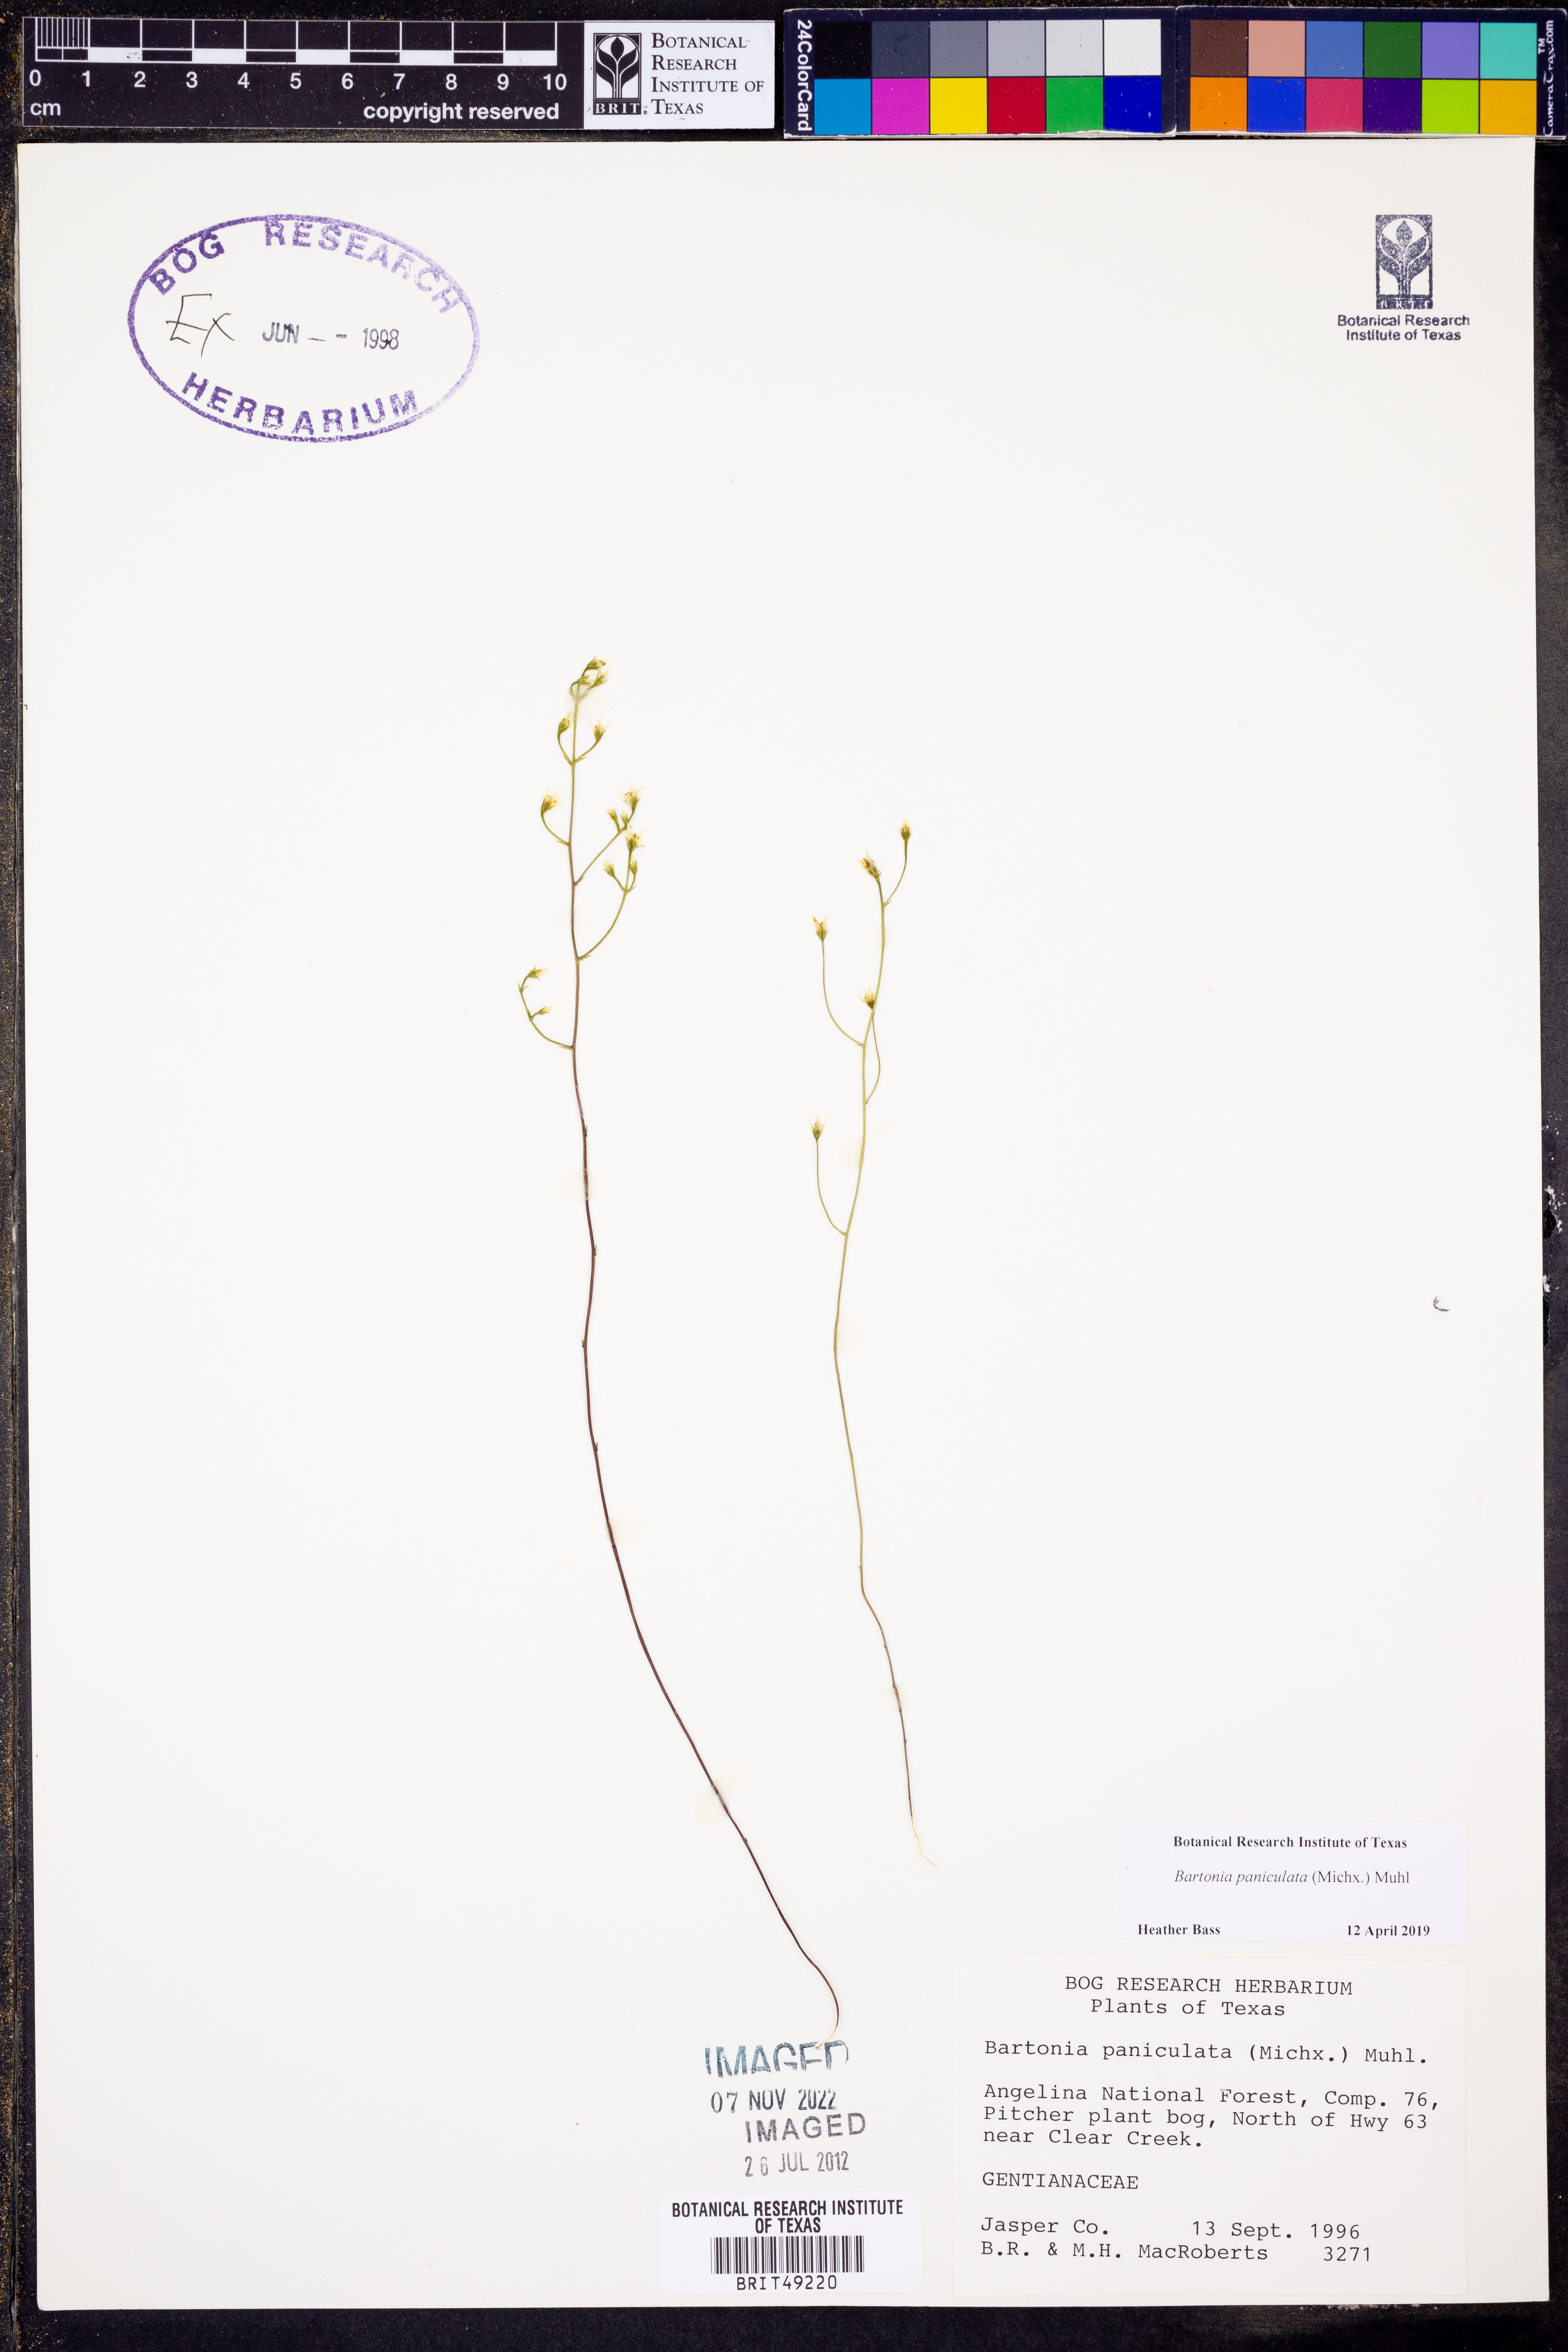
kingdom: Plantae
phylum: Tracheophyta
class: Magnoliopsida
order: Gentianales
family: Gentianaceae
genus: Bartonia
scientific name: Bartonia paniculata
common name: Branched bartonia
